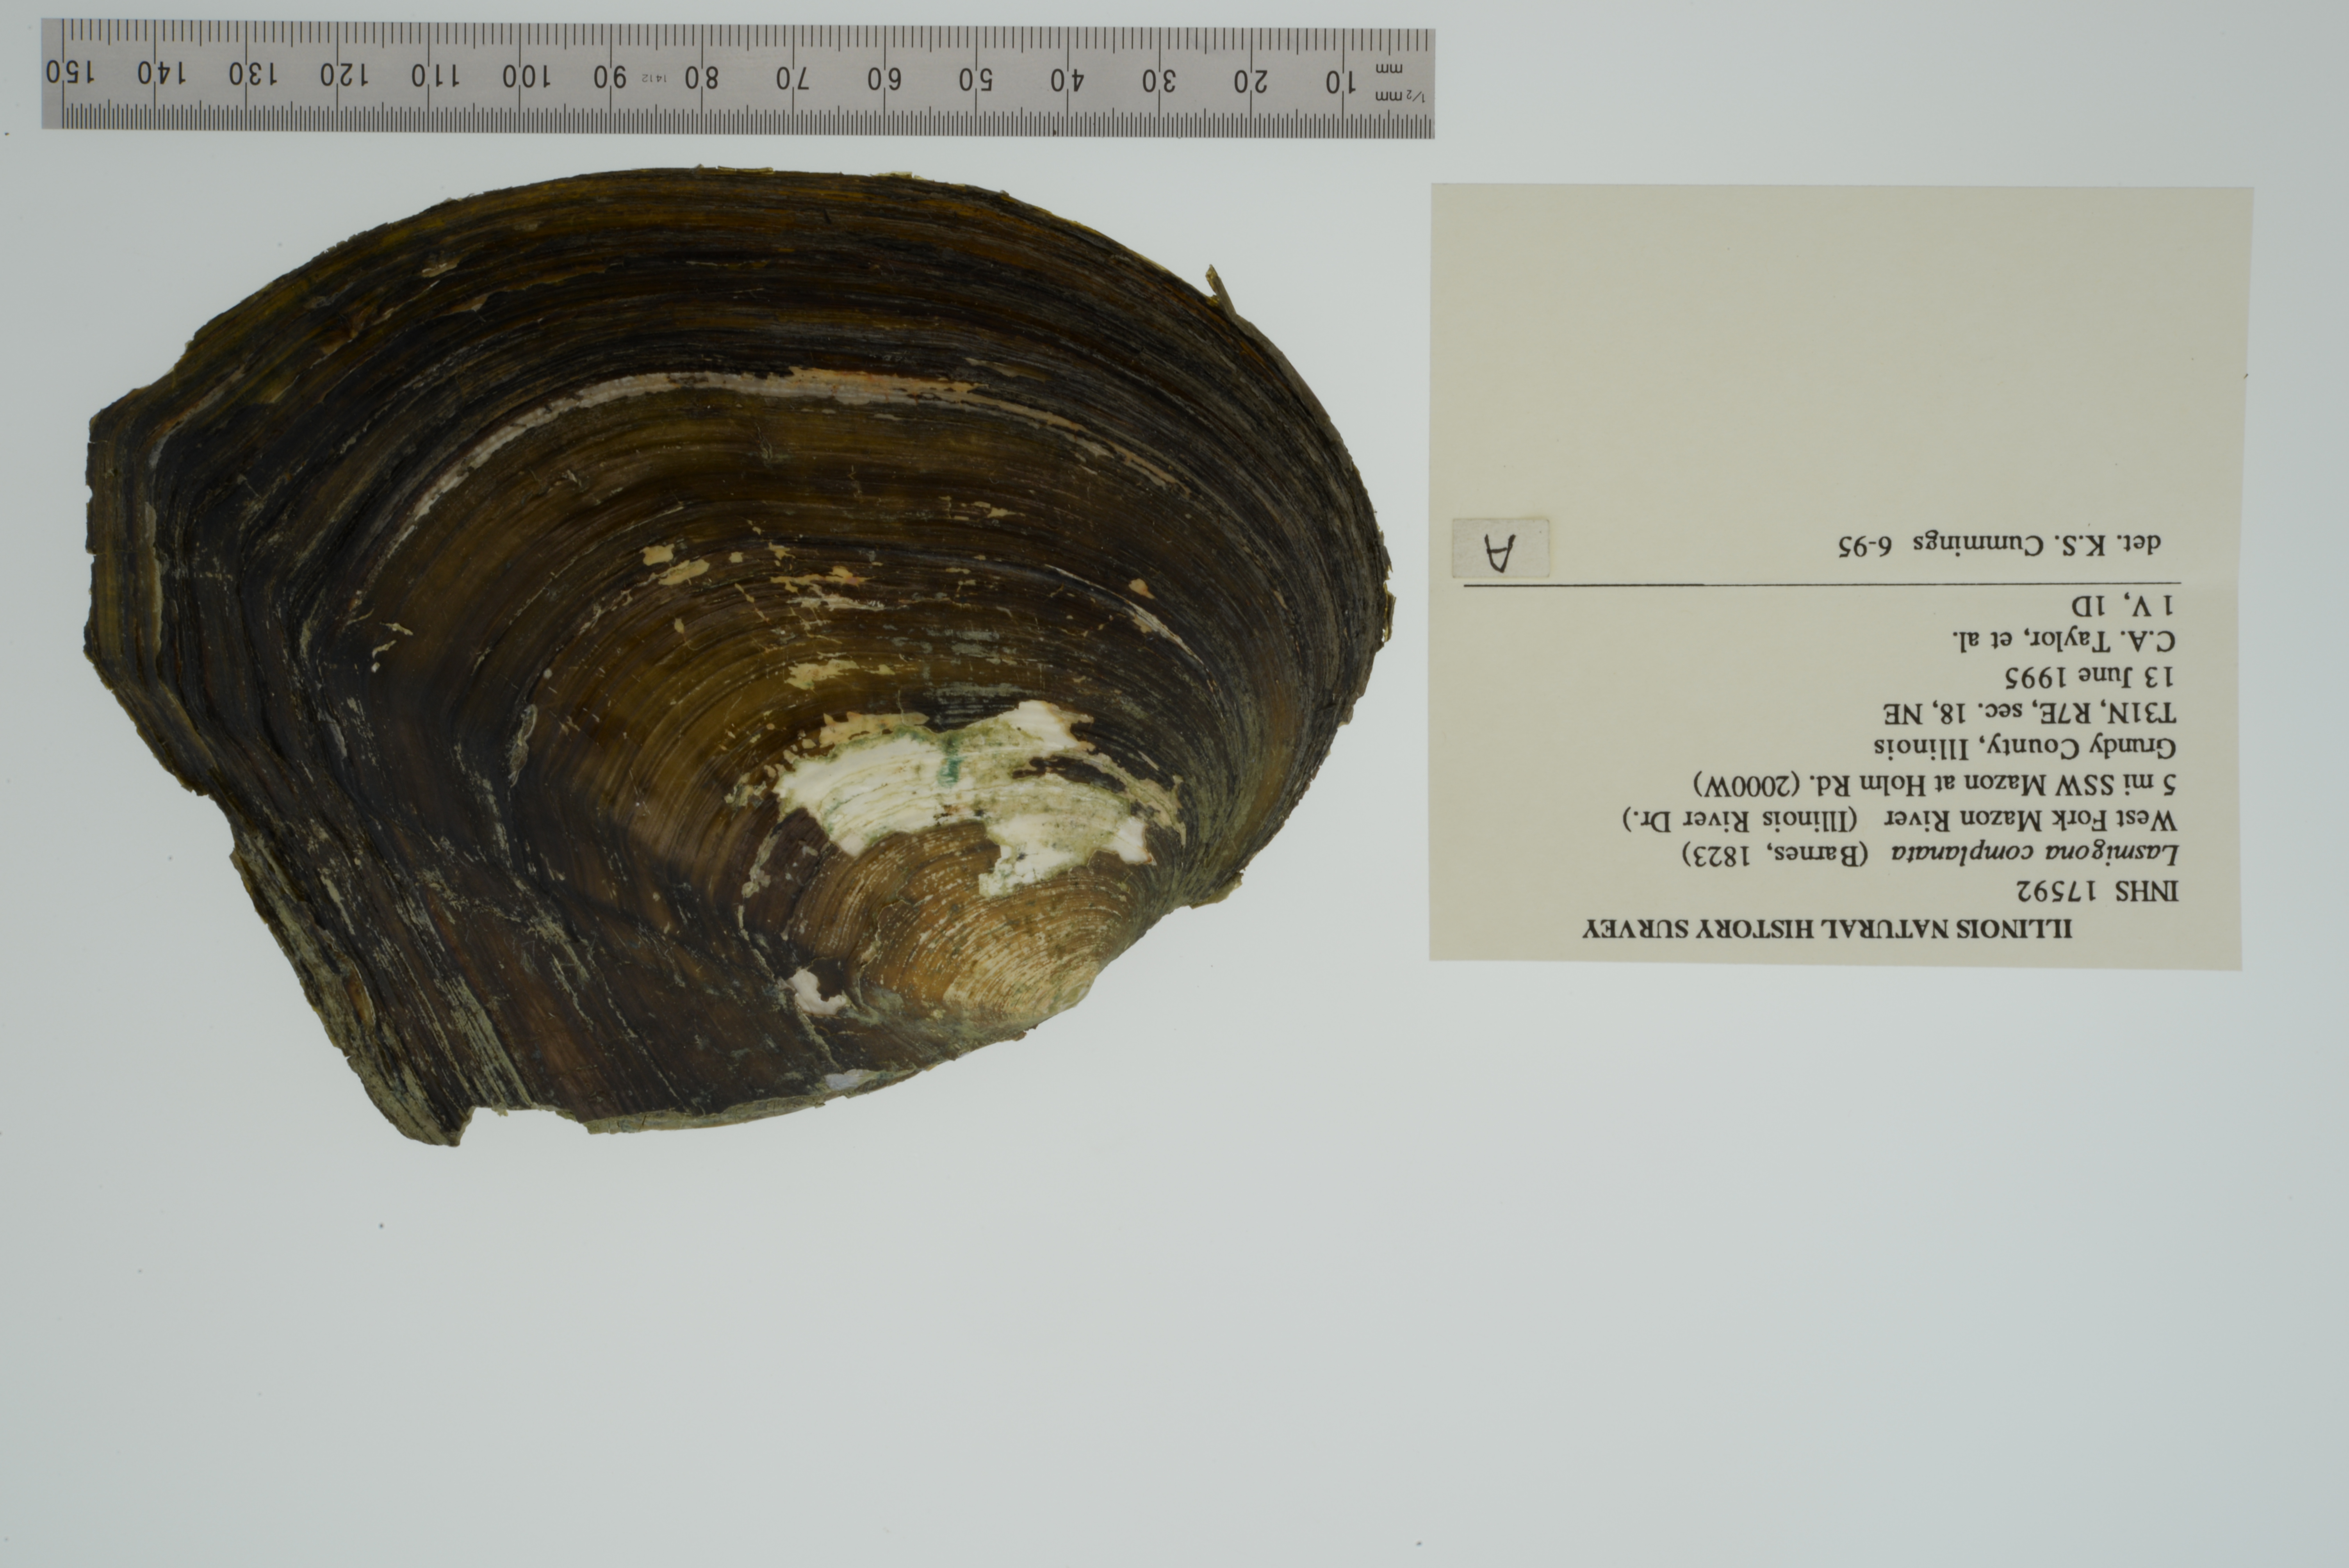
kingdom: Animalia
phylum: Mollusca
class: Bivalvia
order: Unionida
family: Unionidae
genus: Lasmigona
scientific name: Lasmigona complanata
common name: White heelsplitter
